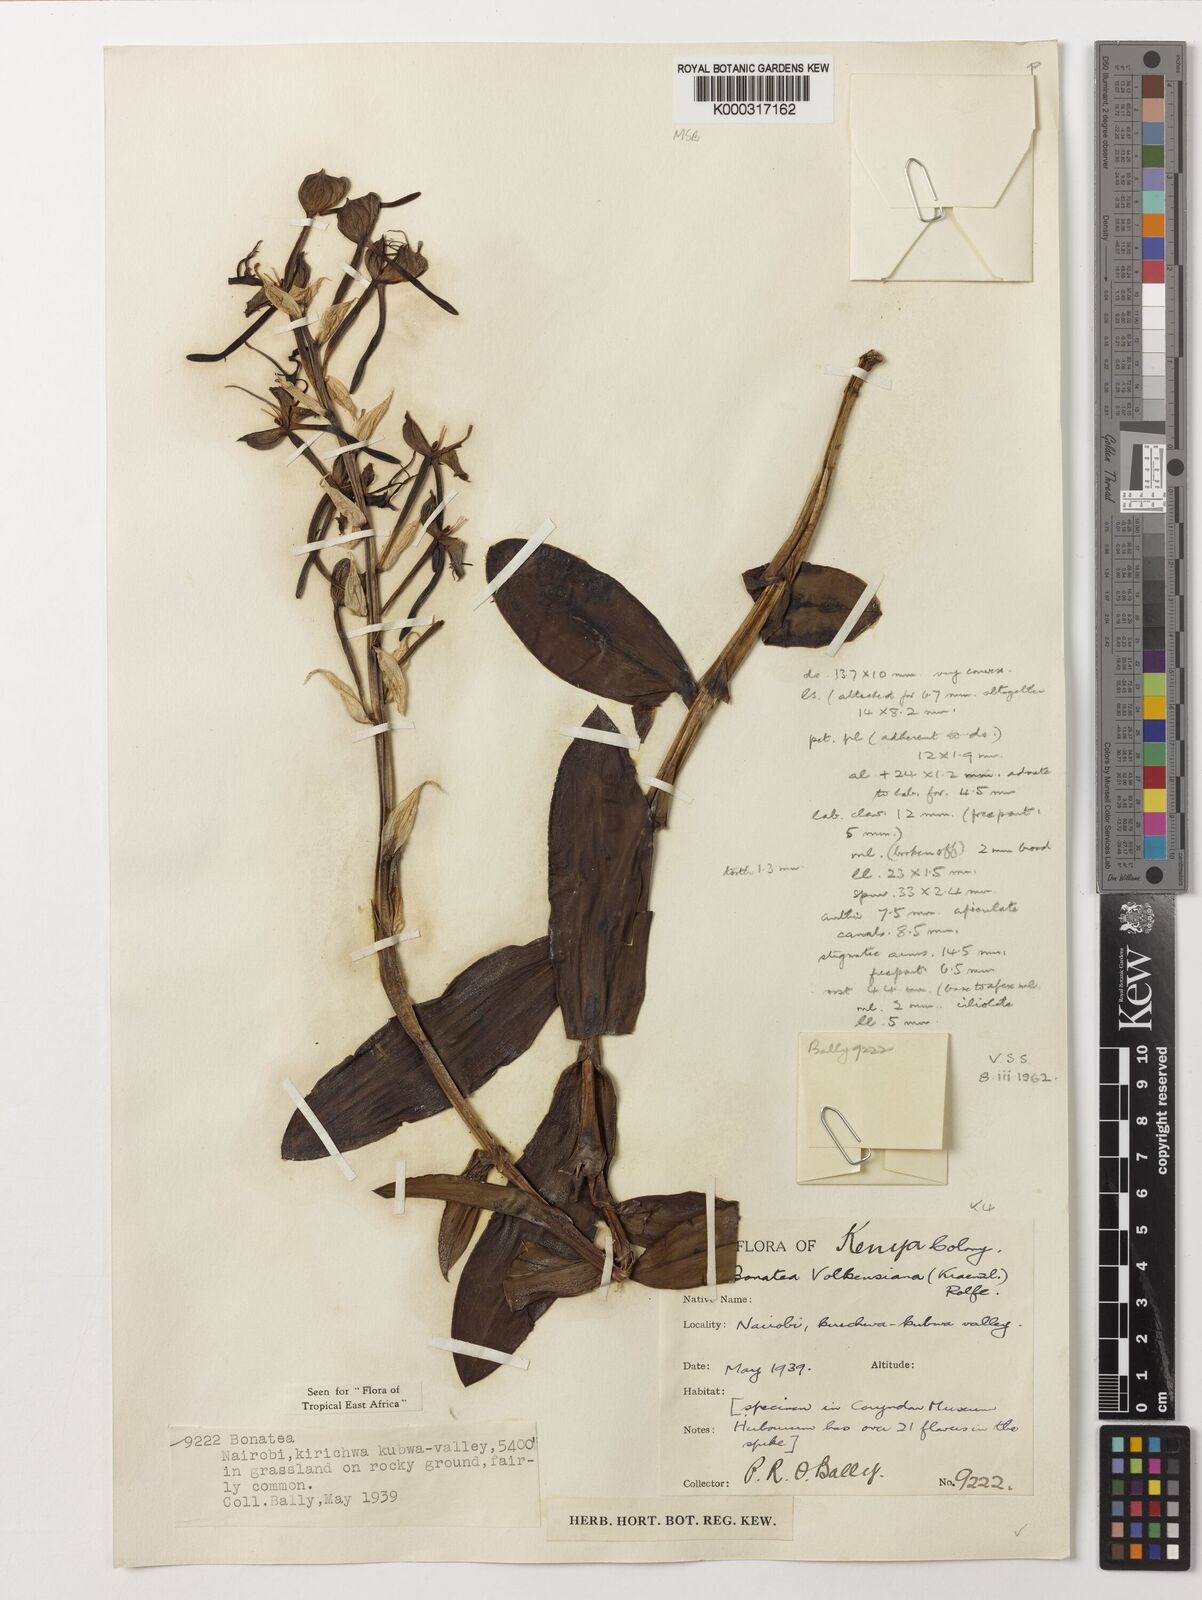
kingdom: Plantae
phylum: Tracheophyta
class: Liliopsida
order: Asparagales
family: Orchidaceae
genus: Bonatea
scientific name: Bonatea volkensiana
